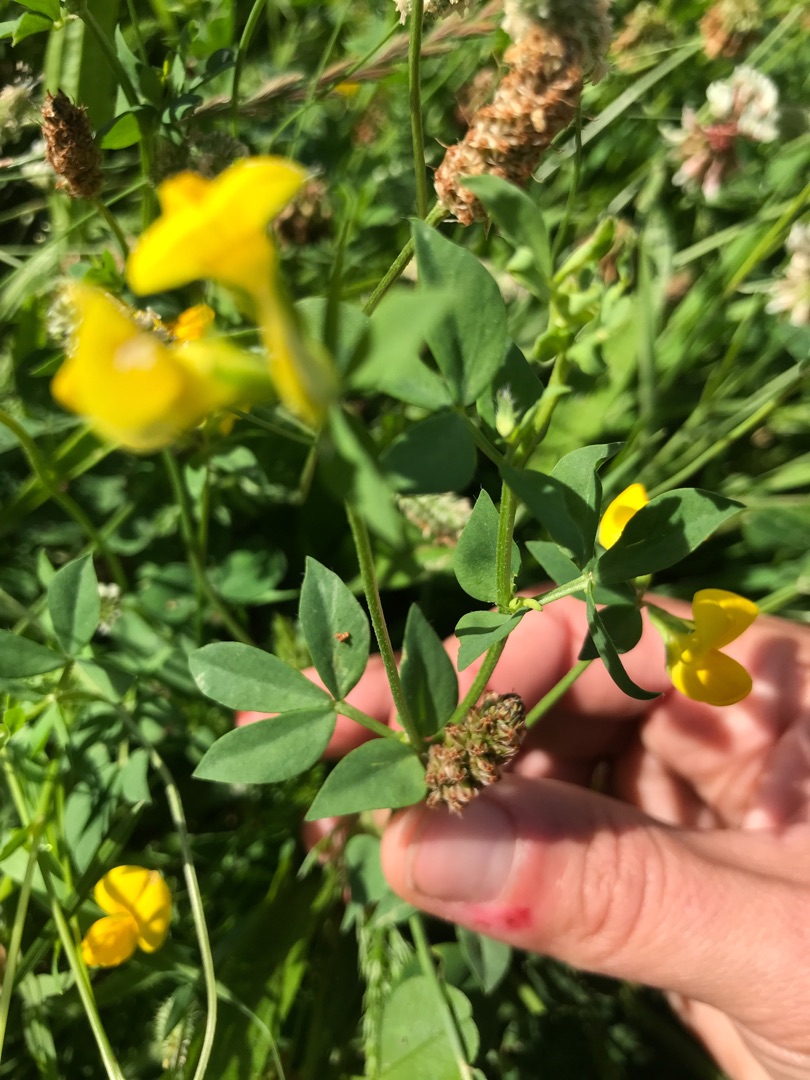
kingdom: Plantae
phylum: Tracheophyta
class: Magnoliopsida
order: Fabales
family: Fabaceae
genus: Lotus
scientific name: Lotus corniculatus
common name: Almindelig kællingetand
